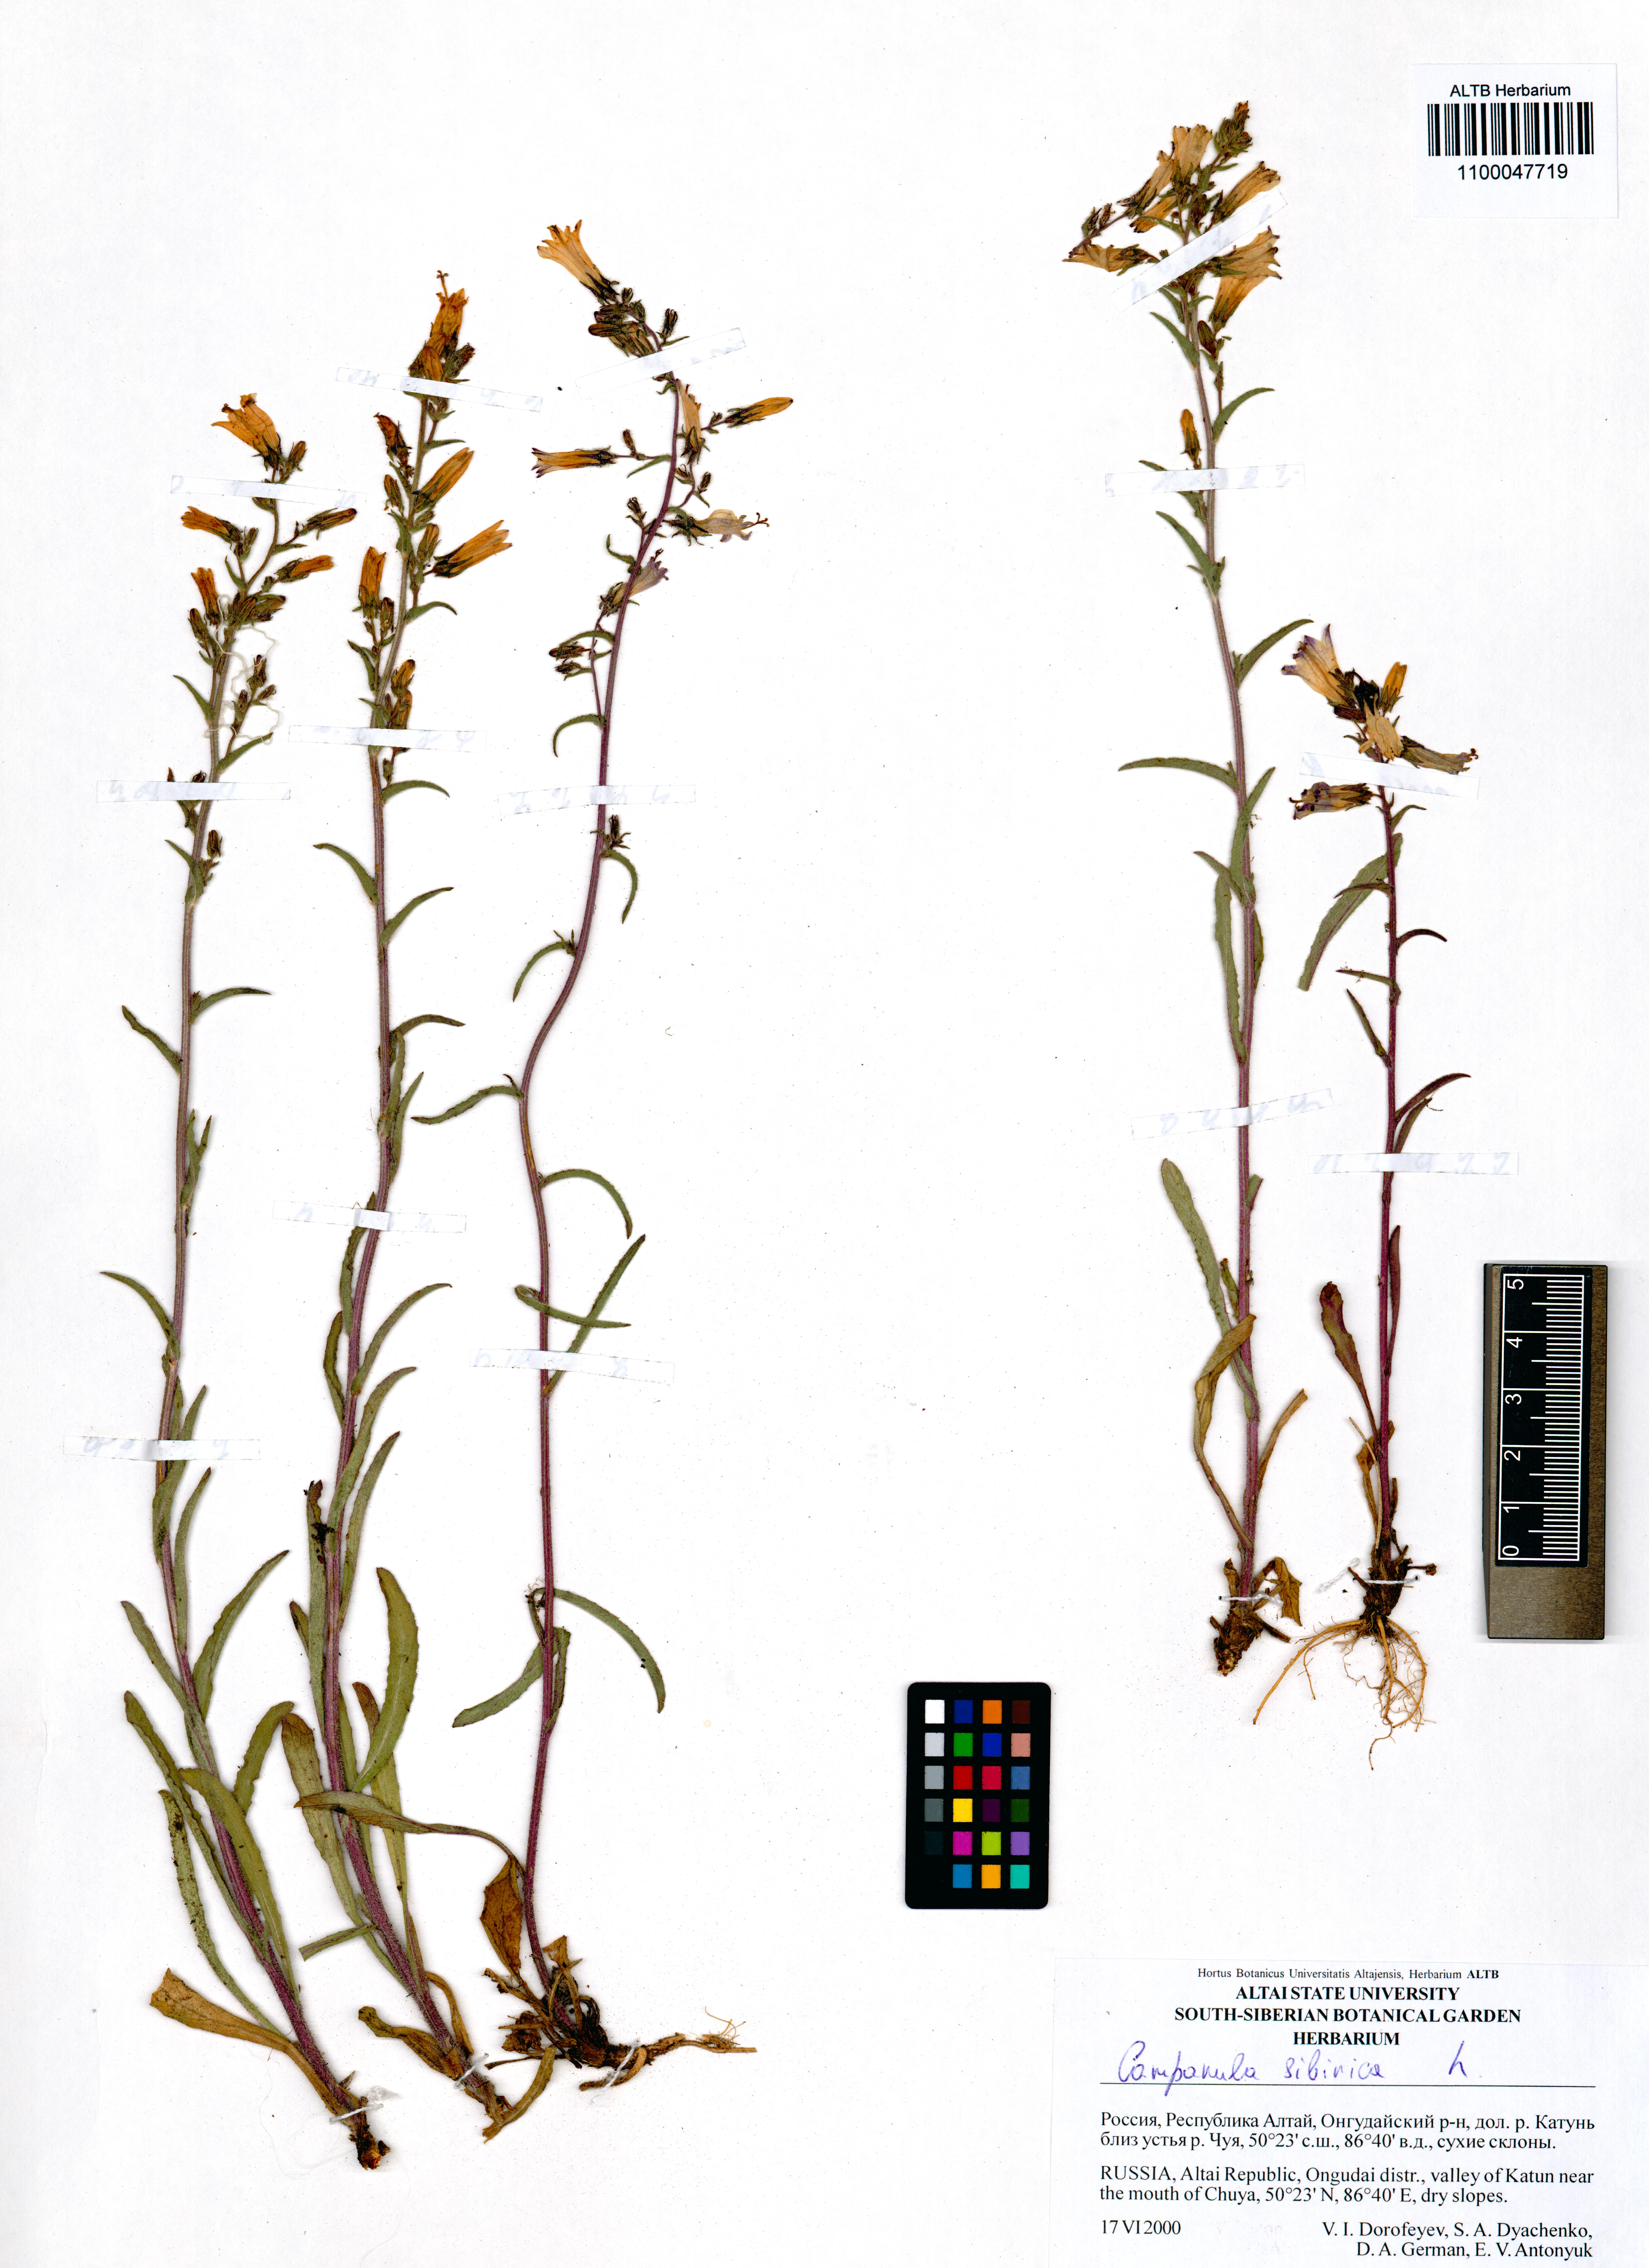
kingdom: Plantae
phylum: Tracheophyta
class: Magnoliopsida
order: Asterales
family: Campanulaceae
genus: Campanula
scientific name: Campanula sibirica
